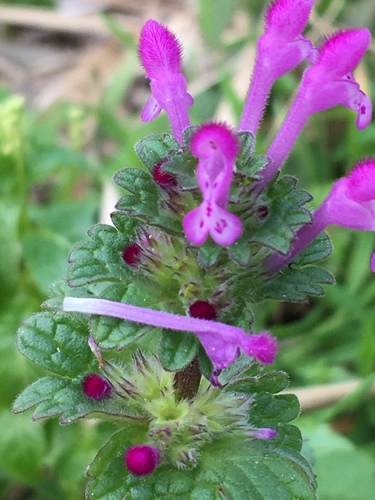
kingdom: Plantae
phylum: Tracheophyta
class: Magnoliopsida
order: Lamiales
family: Lamiaceae
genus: Lamium
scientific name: Lamium amplexicaule
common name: Henbit dead-nettle
